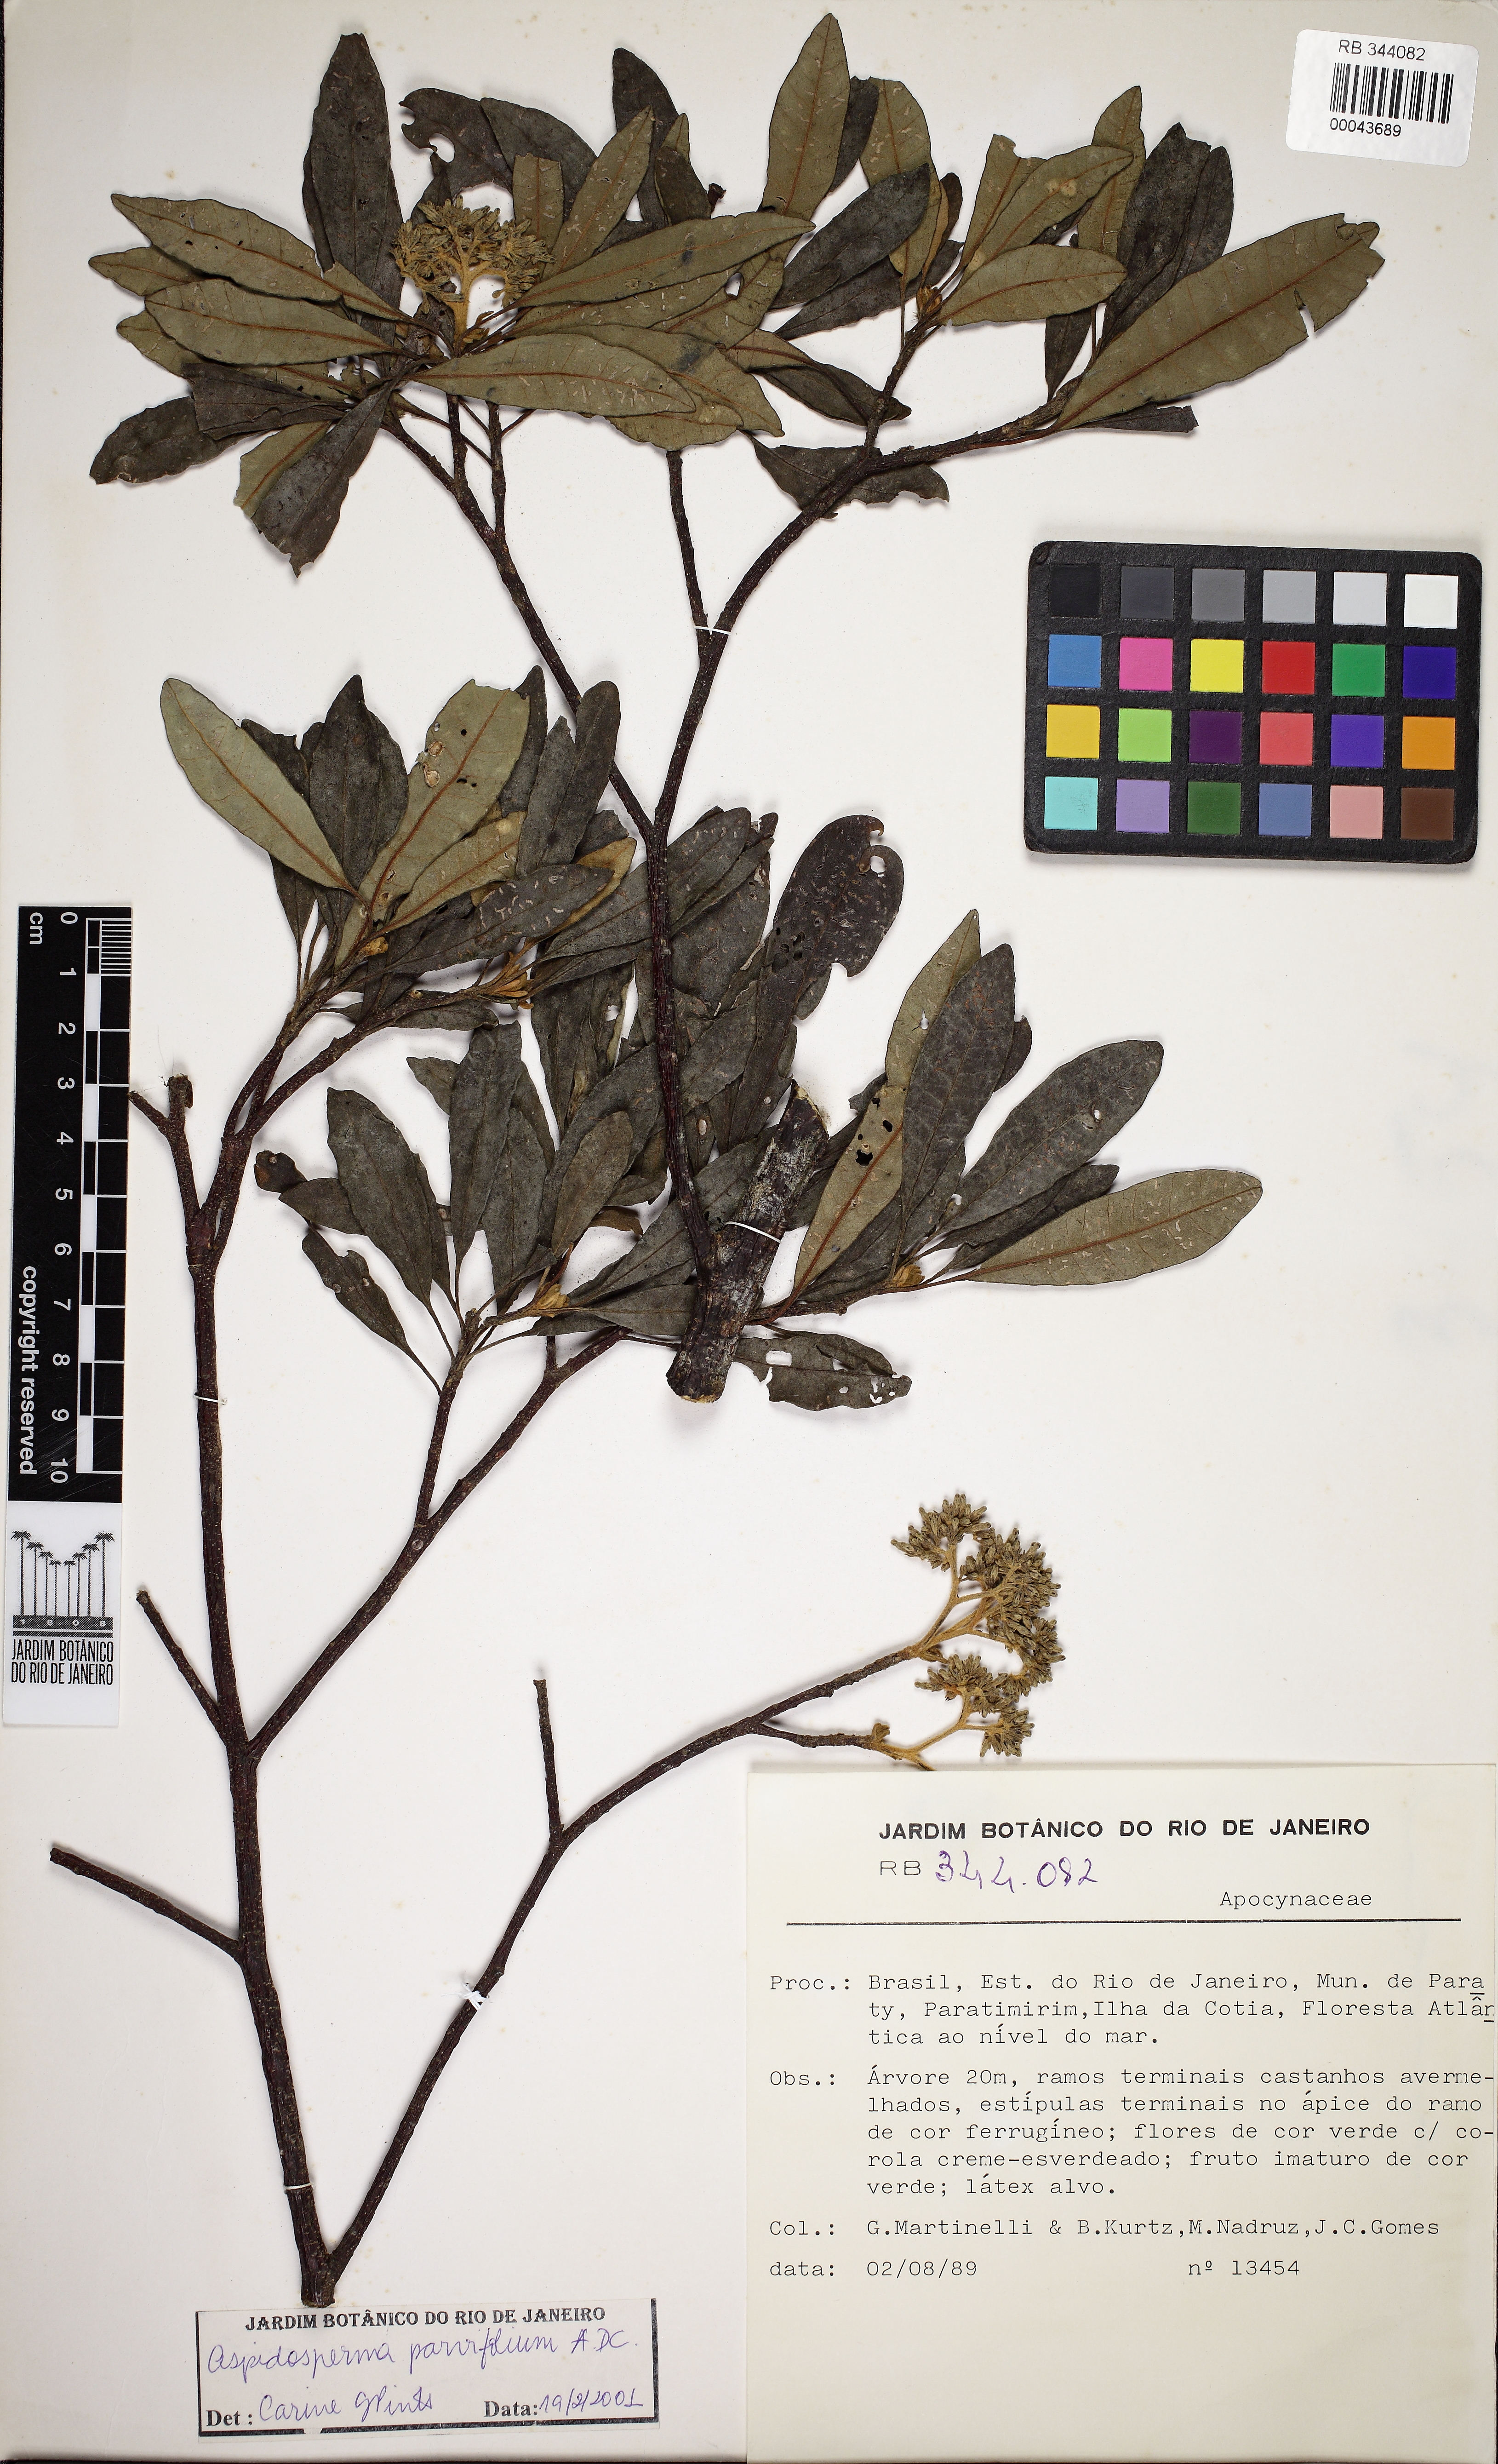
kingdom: Plantae
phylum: Tracheophyta
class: Magnoliopsida
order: Gentianales
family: Apocynaceae
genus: Aspidosperma
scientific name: Aspidosperma parvifolium
